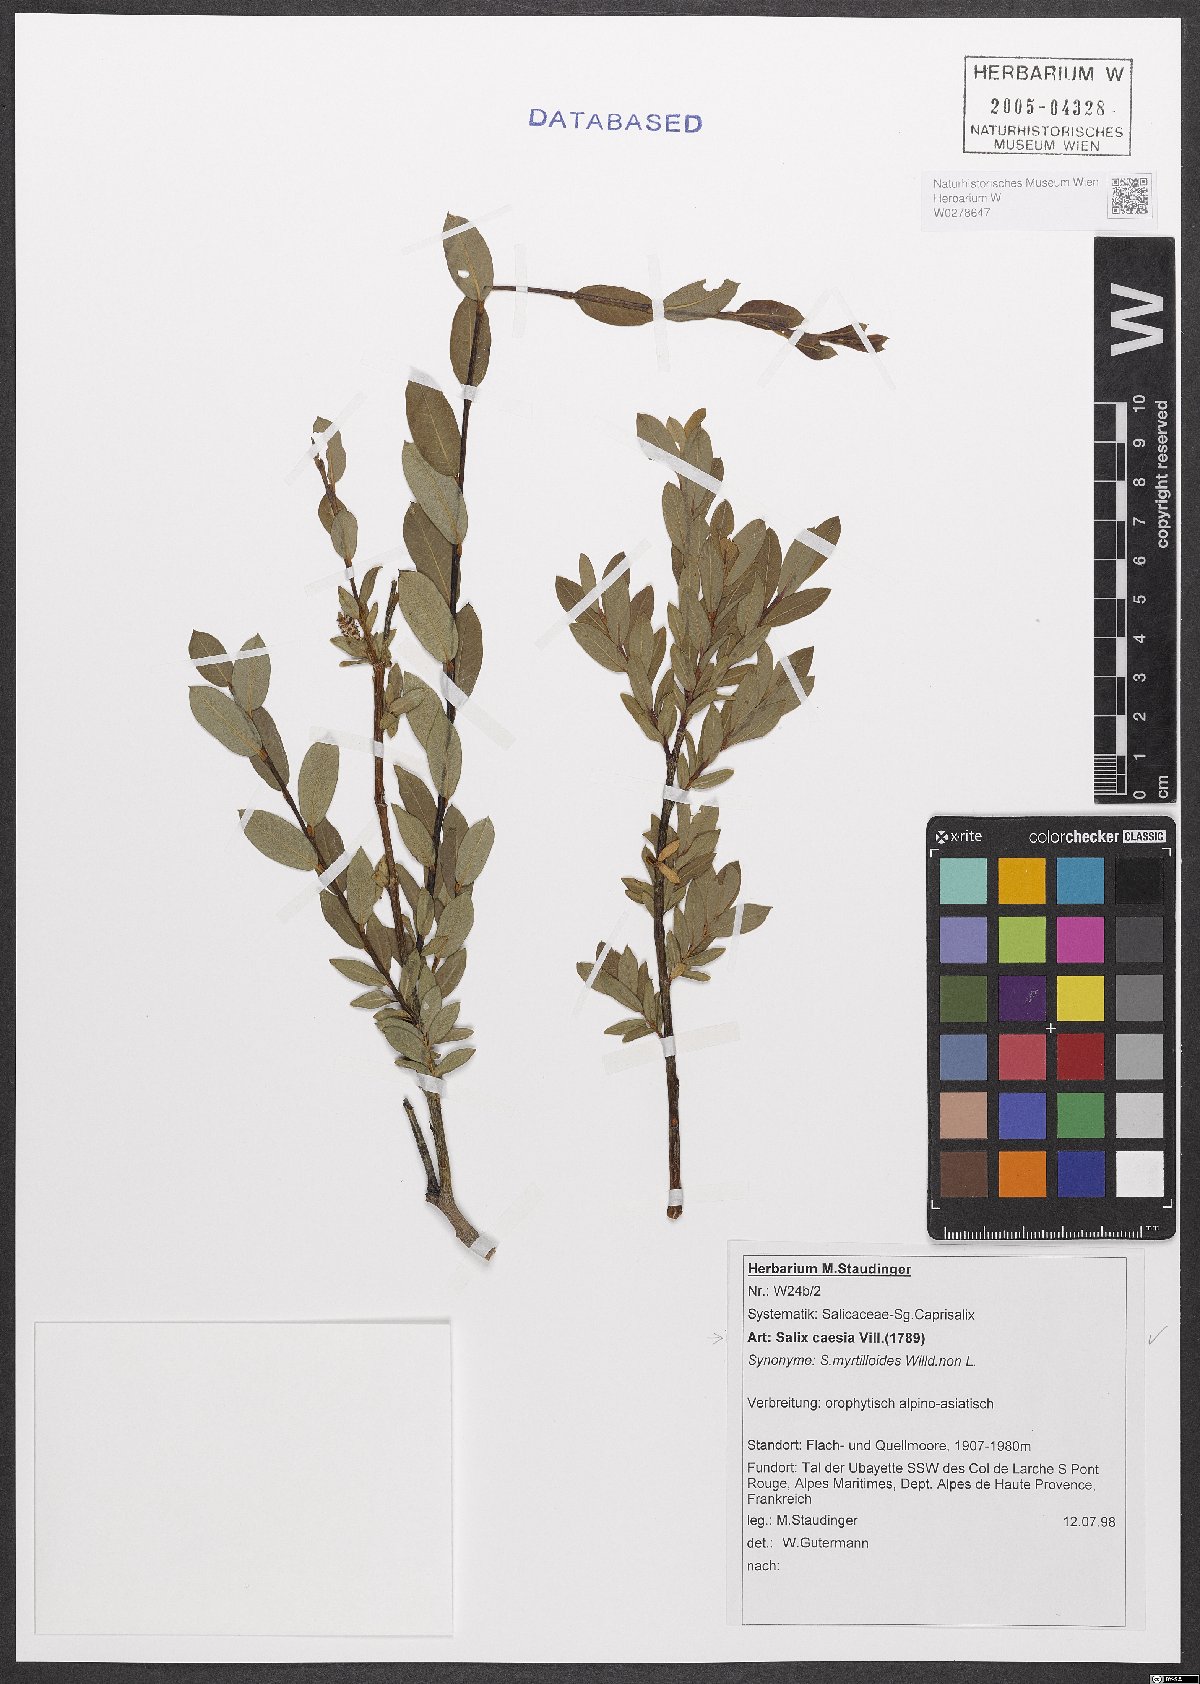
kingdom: Plantae
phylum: Tracheophyta
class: Magnoliopsida
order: Malpighiales
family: Salicaceae
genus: Salix
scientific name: Salix caesia
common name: Blue willow
